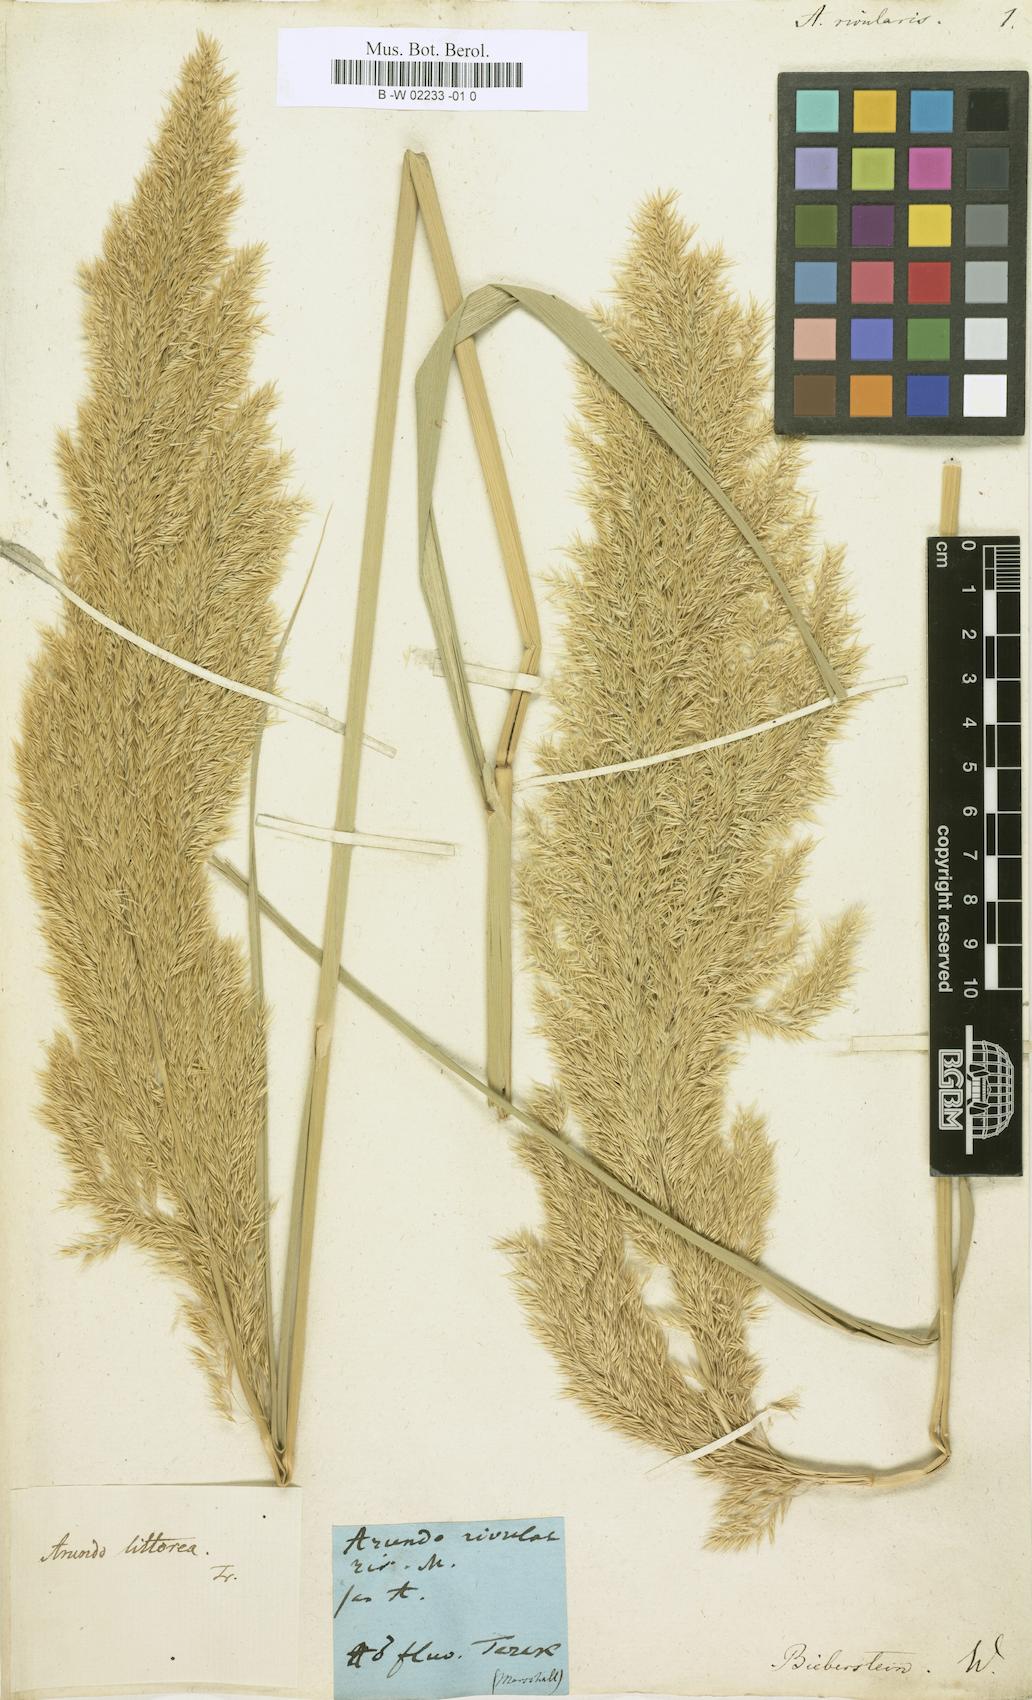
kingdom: Plantae
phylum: Tracheophyta
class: Liliopsida
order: Poales
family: Poaceae
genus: Phragmites
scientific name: Phragmites australis
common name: Common reed
